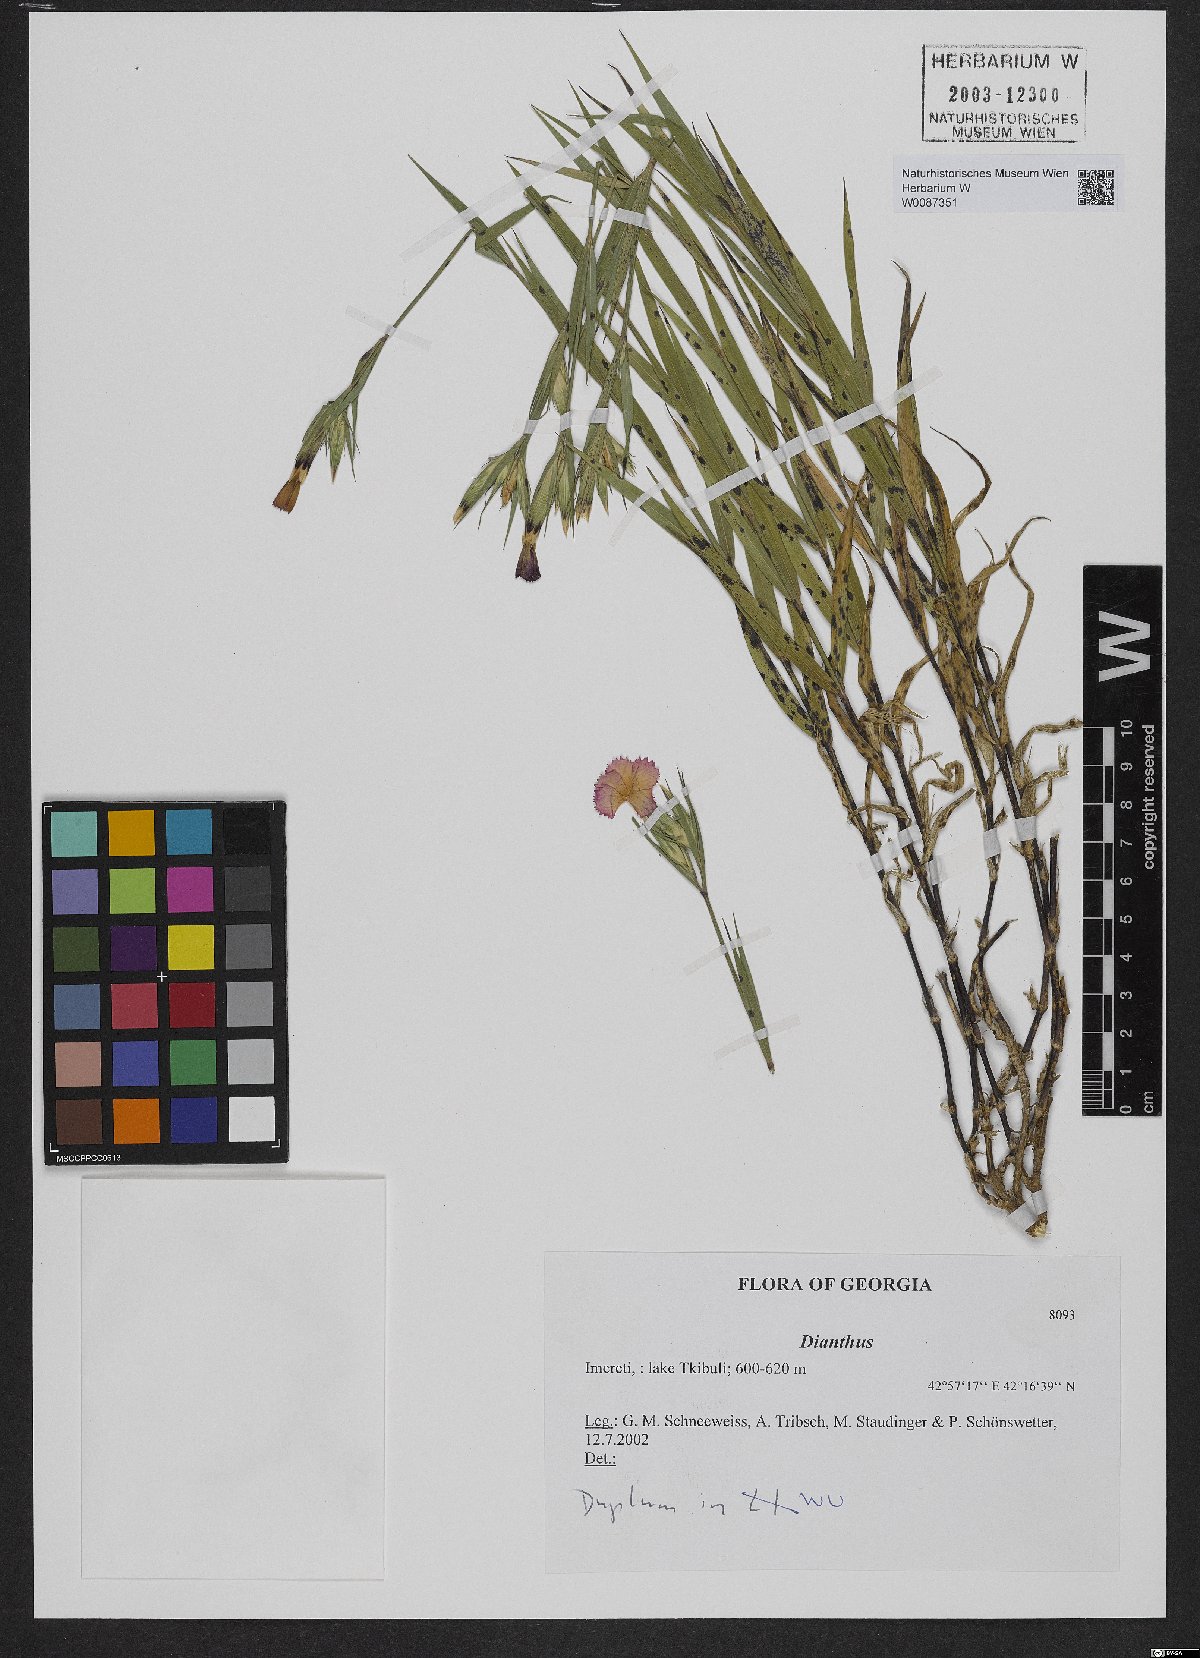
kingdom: Plantae
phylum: Tracheophyta
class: Magnoliopsida
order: Caryophyllales
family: Caryophyllaceae
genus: Dianthus
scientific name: Dianthus
